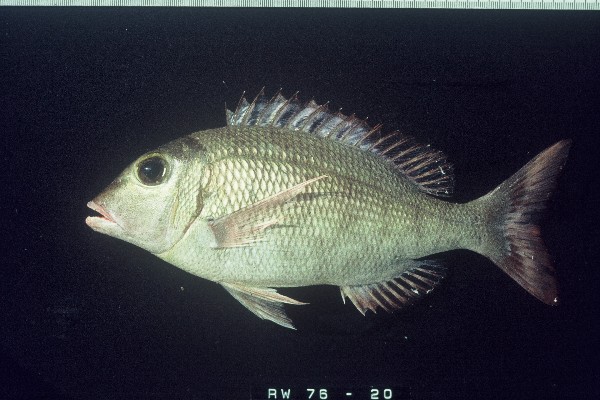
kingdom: Animalia
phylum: Chordata
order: Perciformes
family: Lethrinidae
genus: Lethrinus
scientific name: Lethrinus borbonicus
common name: Snubnose emperor
